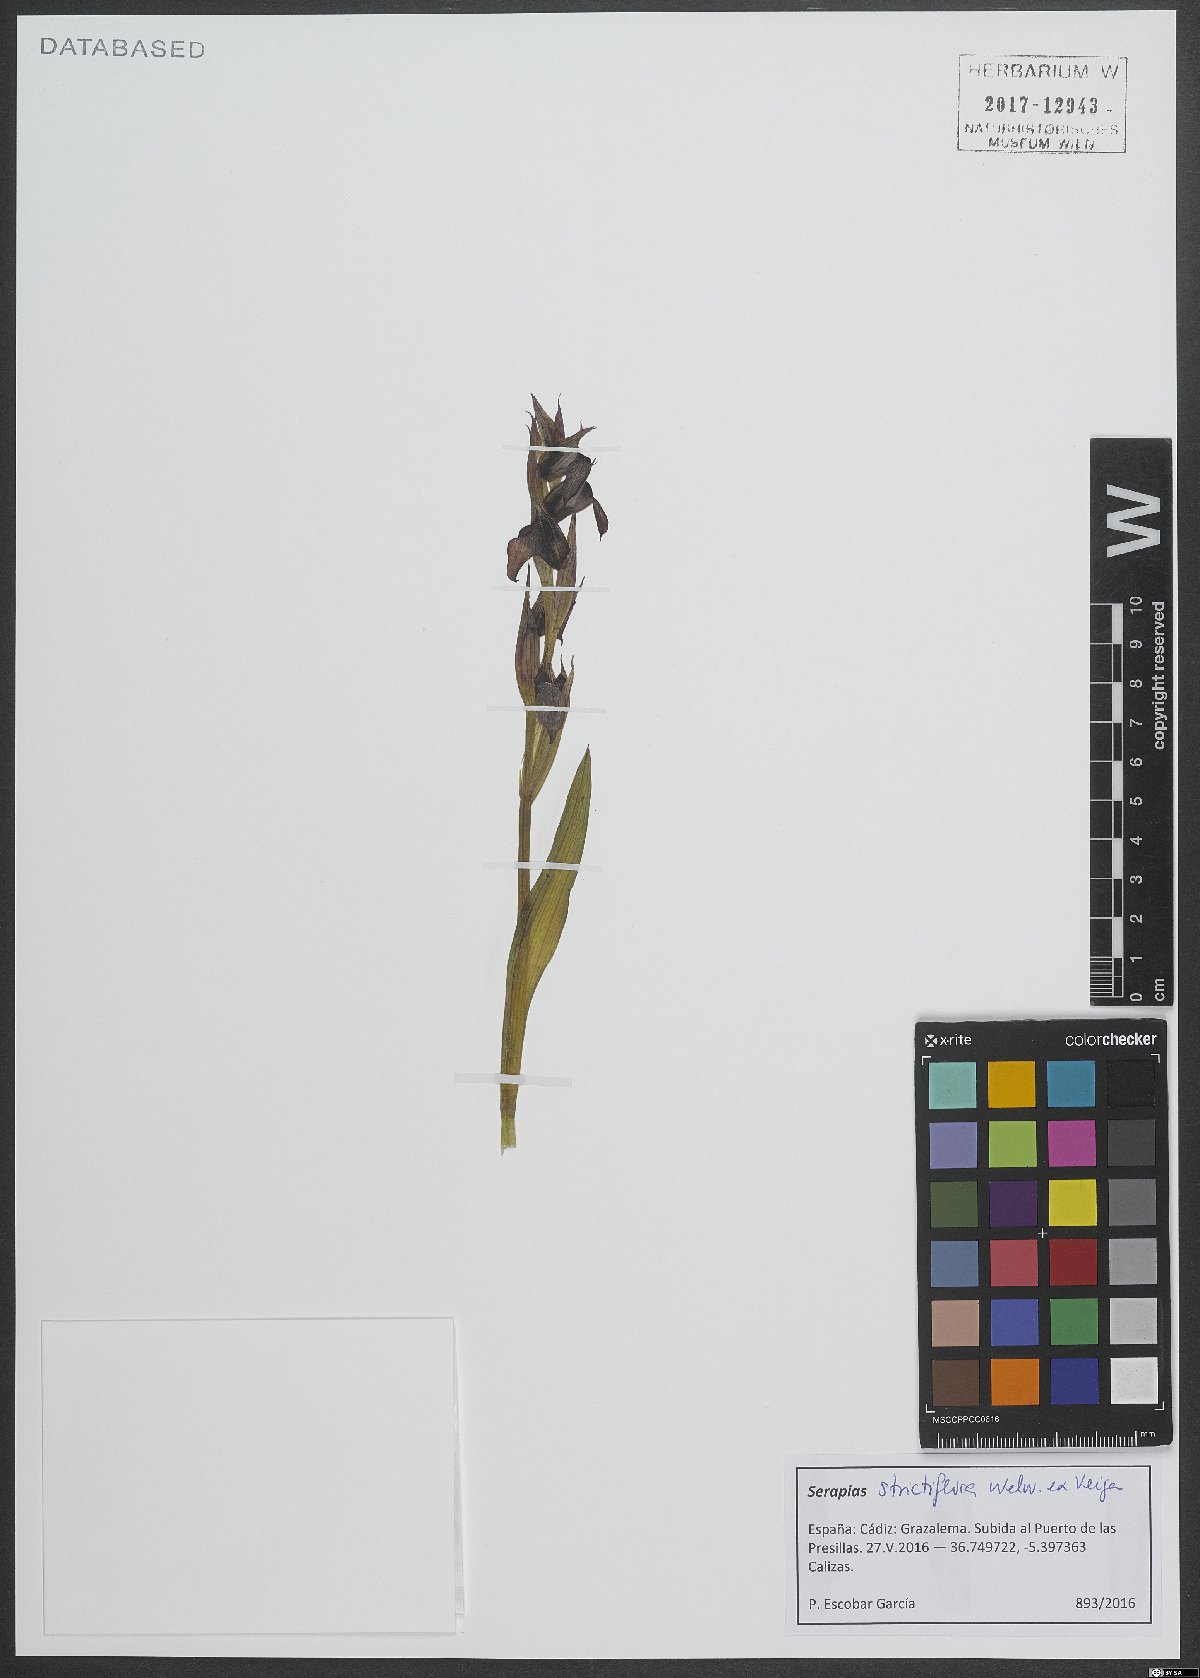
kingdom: Plantae
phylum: Tracheophyta
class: Liliopsida
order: Asparagales
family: Orchidaceae
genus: Serapias
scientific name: Serapias strictiflora
